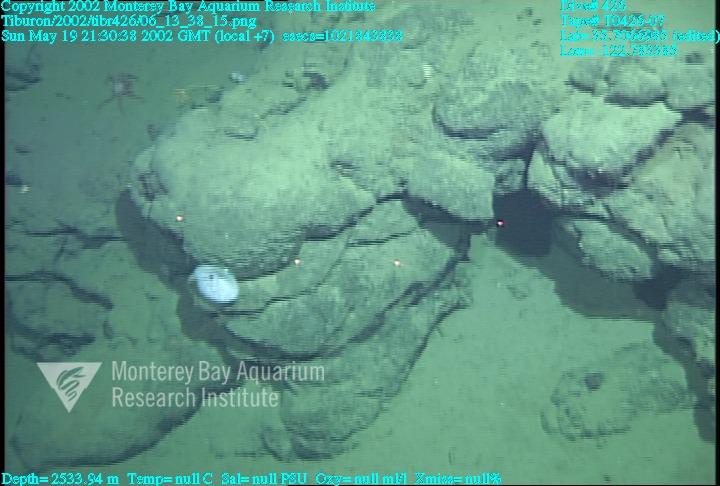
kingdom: Animalia
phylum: Porifera
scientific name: Porifera
